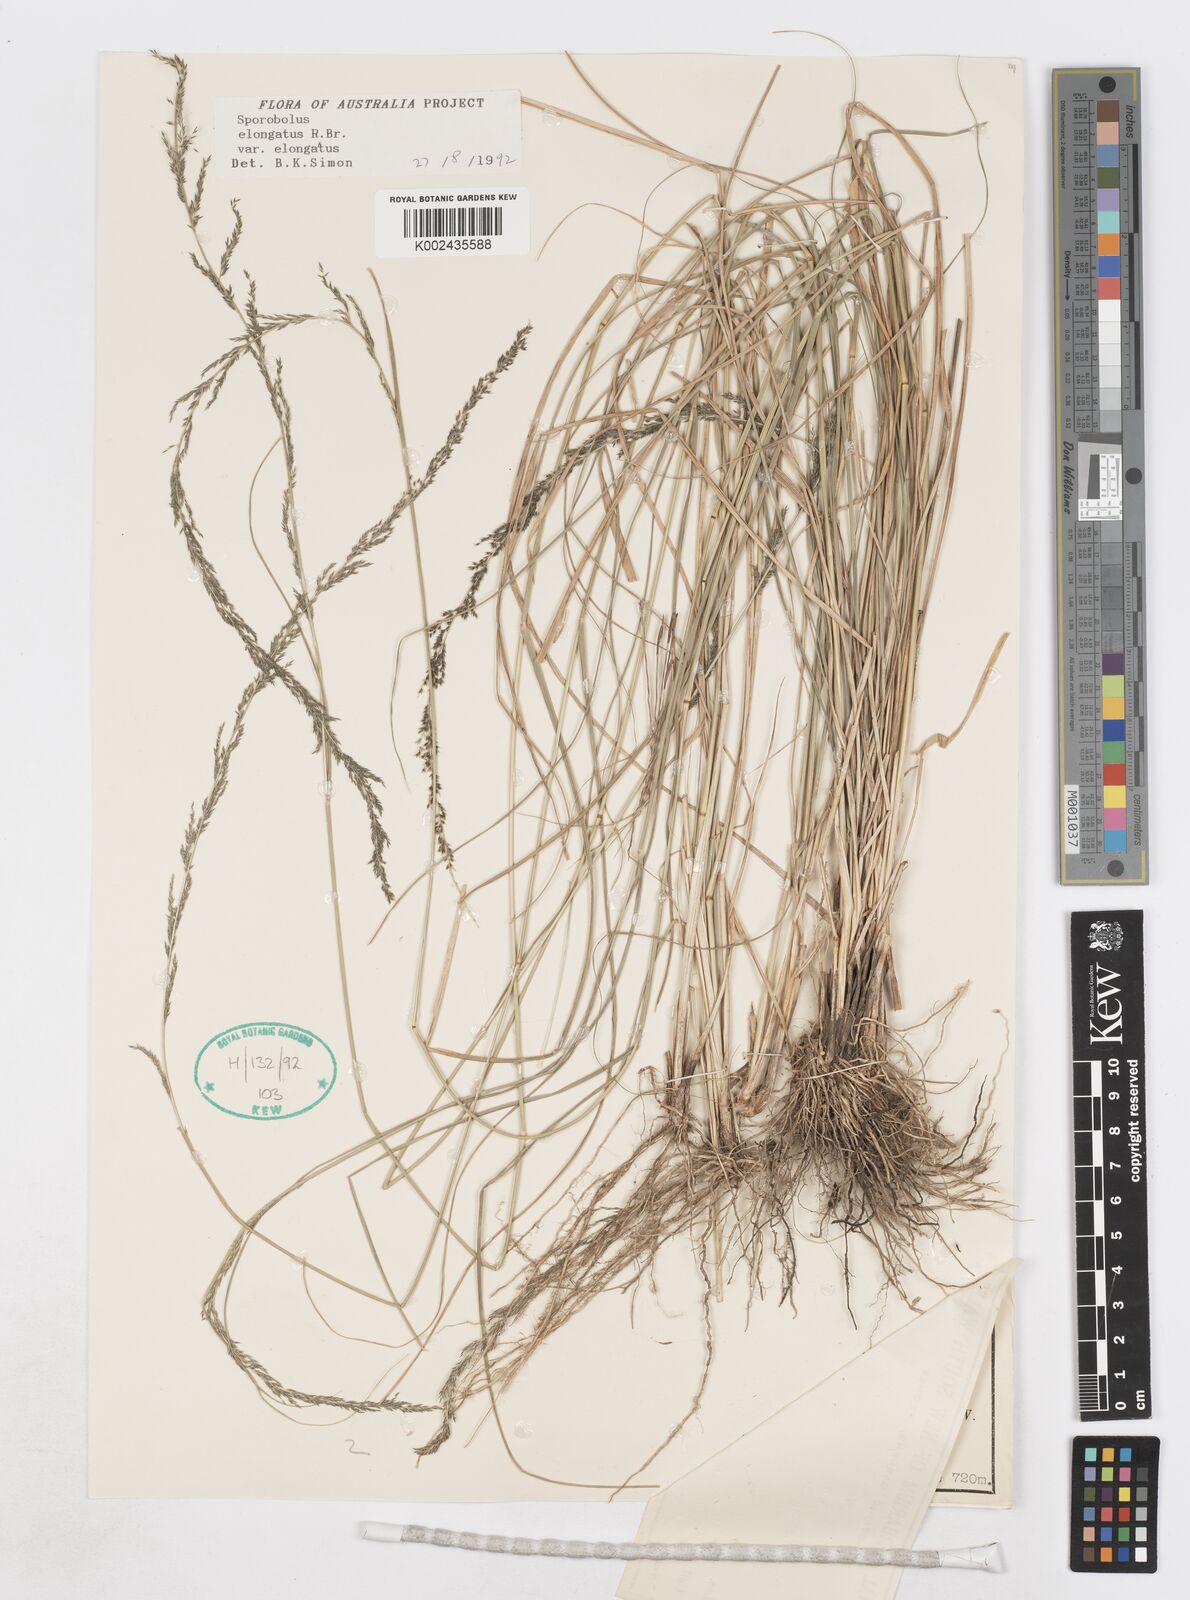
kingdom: Plantae
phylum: Tracheophyta
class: Liliopsida
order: Poales
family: Poaceae
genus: Sporobolus
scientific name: Sporobolus elongatus
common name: Rat tail grass
